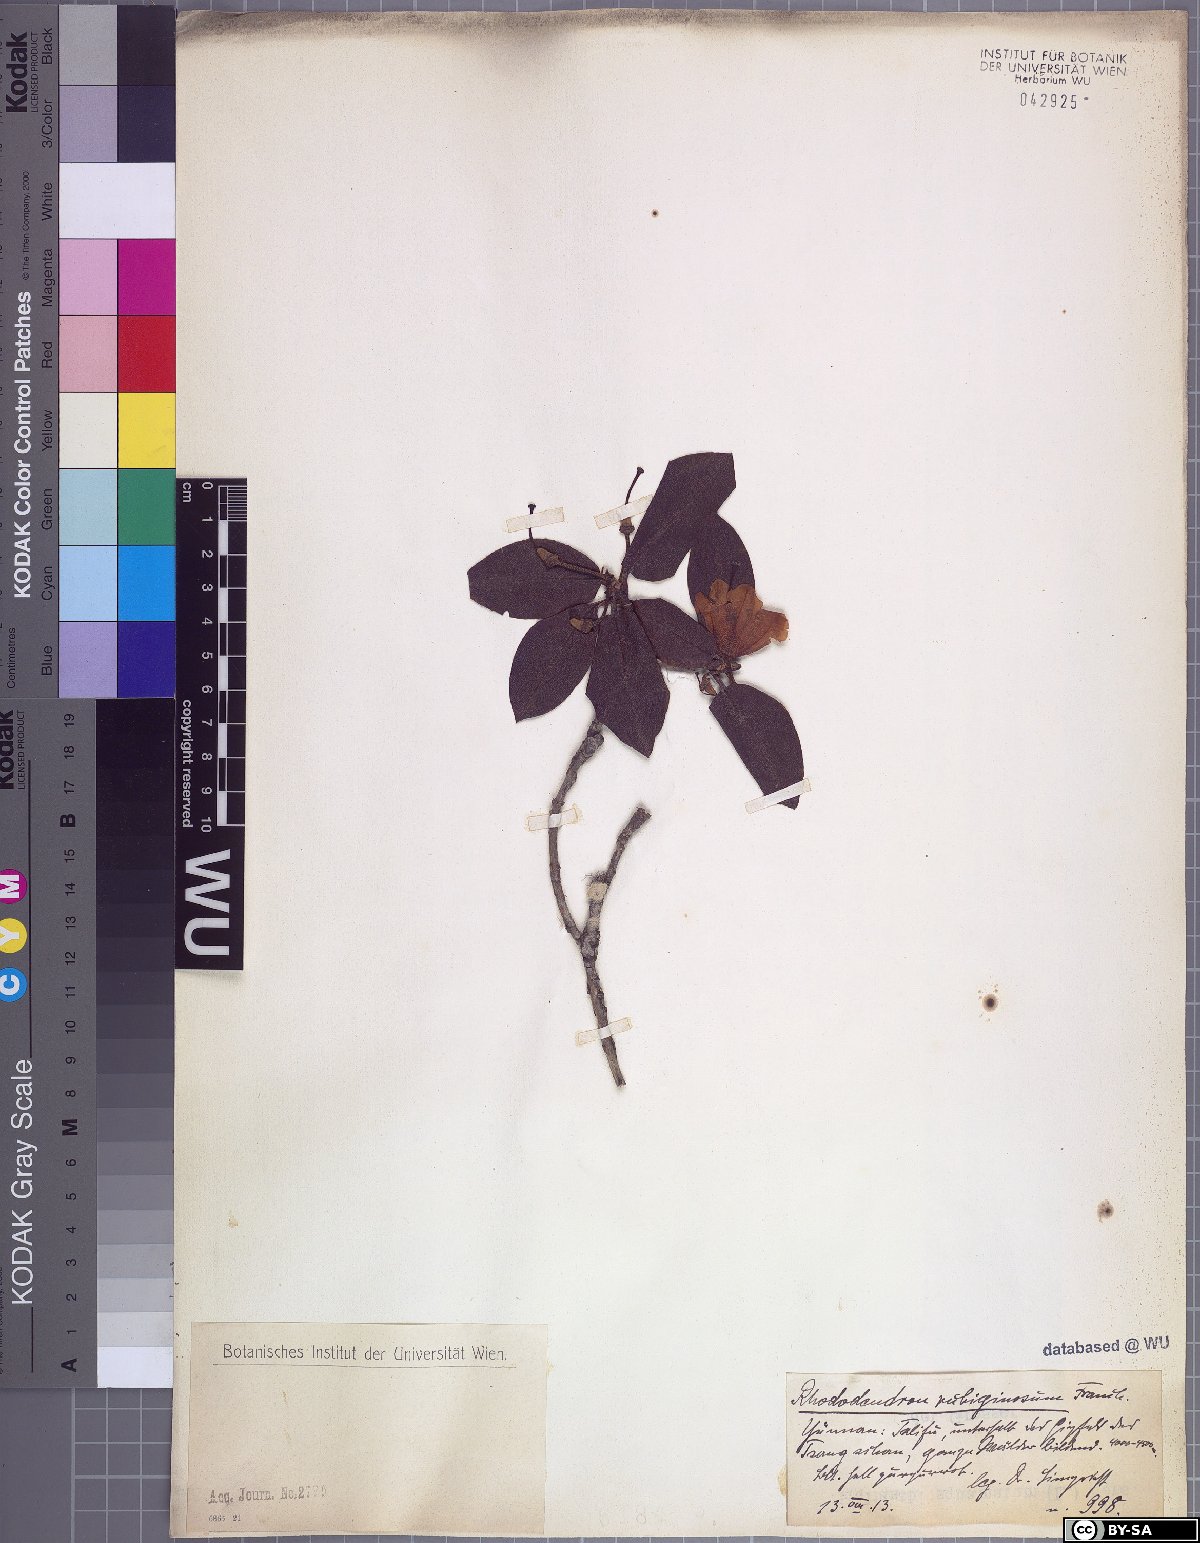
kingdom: Plantae
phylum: Tracheophyta
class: Magnoliopsida
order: Ericales
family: Ericaceae
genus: Rhododendron
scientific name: Rhododendron rubiginosum
